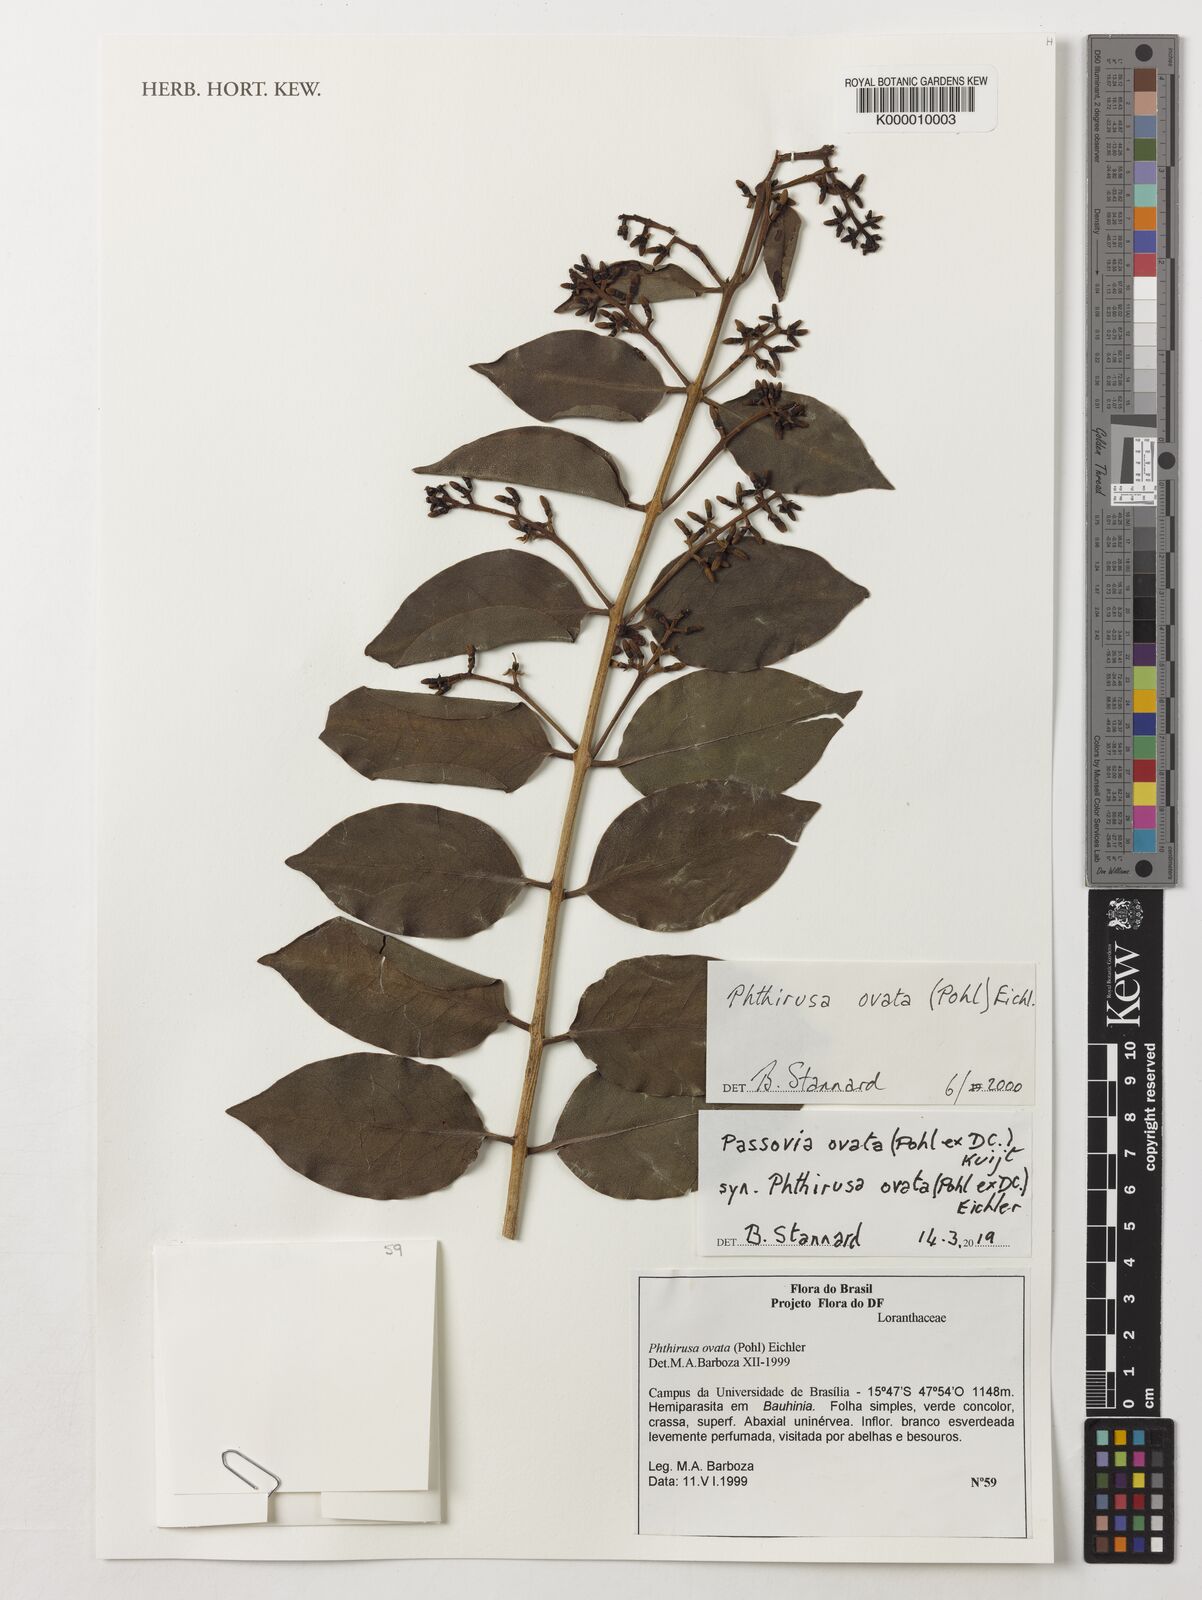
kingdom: Plantae
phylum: Tracheophyta
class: Magnoliopsida
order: Santalales
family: Loranthaceae
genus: Passovia
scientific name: Passovia ovata
